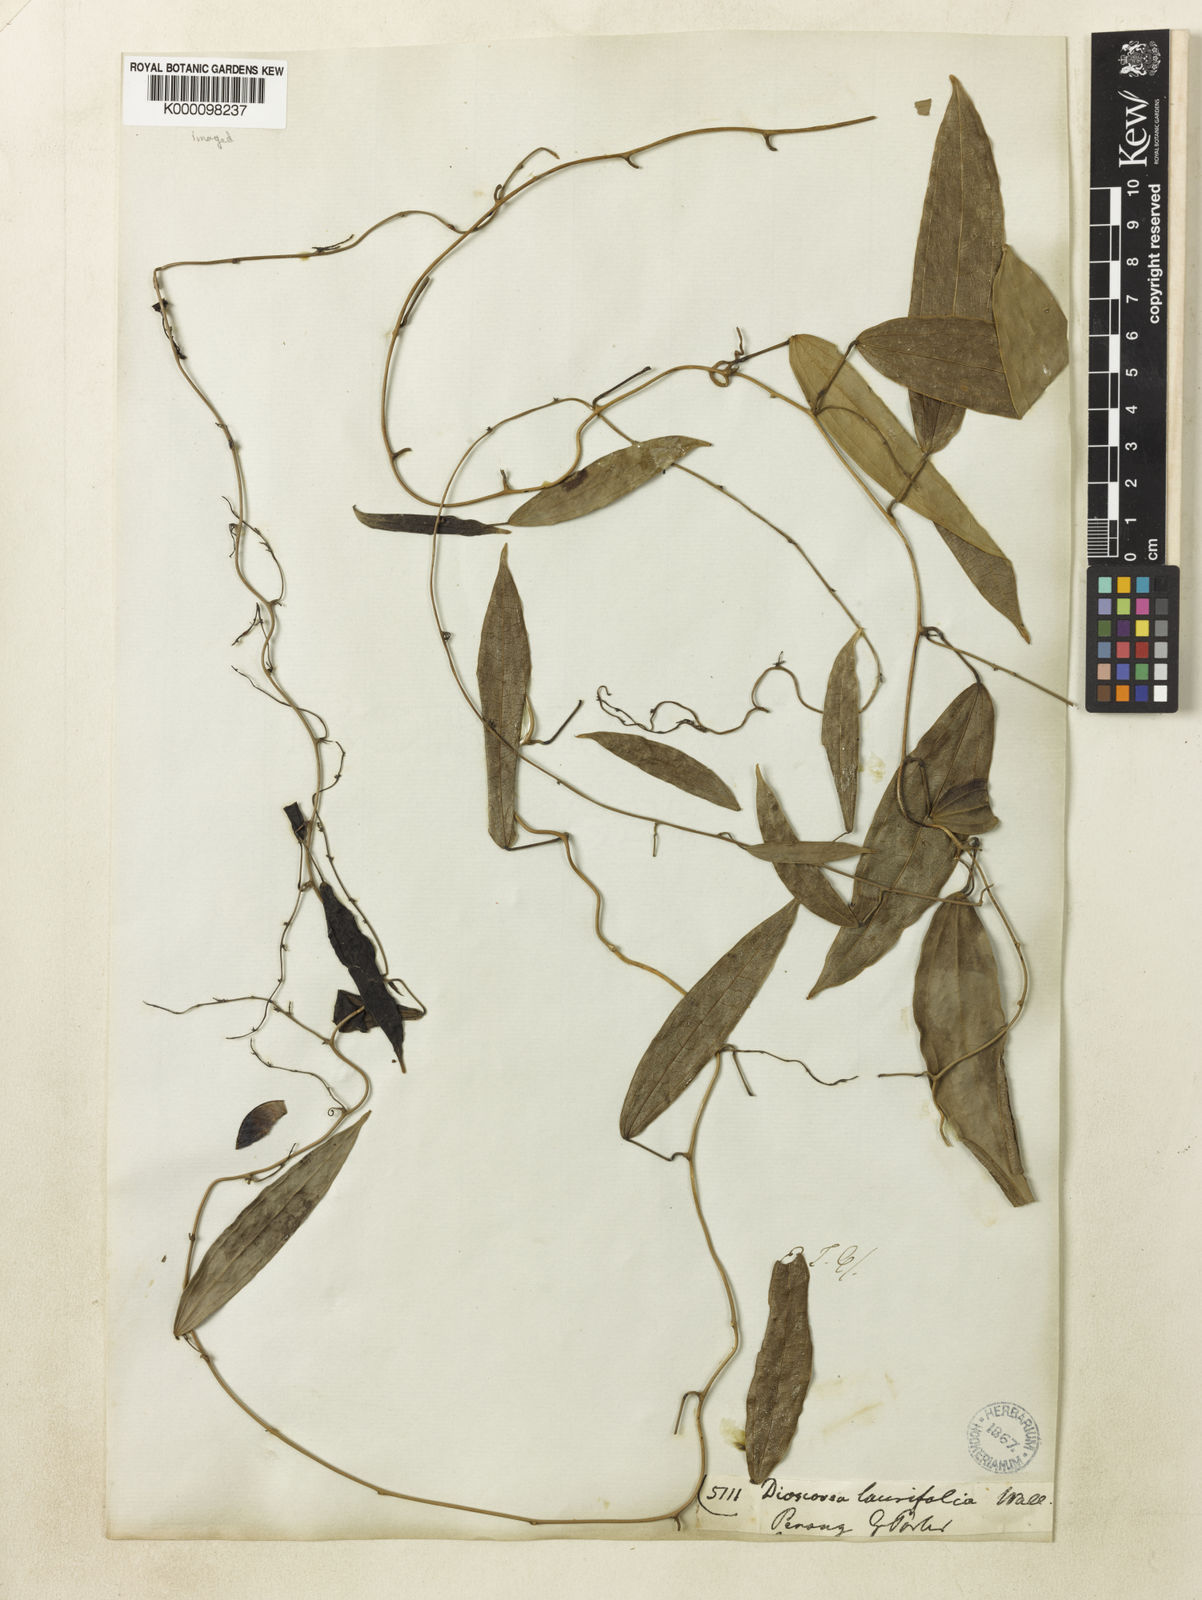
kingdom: Plantae
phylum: Tracheophyta
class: Liliopsida
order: Dioscoreales
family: Dioscoreaceae
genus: Dioscorea
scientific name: Dioscorea
